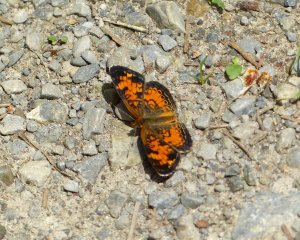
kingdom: Animalia
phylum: Arthropoda
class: Insecta
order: Lepidoptera
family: Nymphalidae
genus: Phyciodes
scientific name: Phyciodes tharos
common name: Northern Crescent
